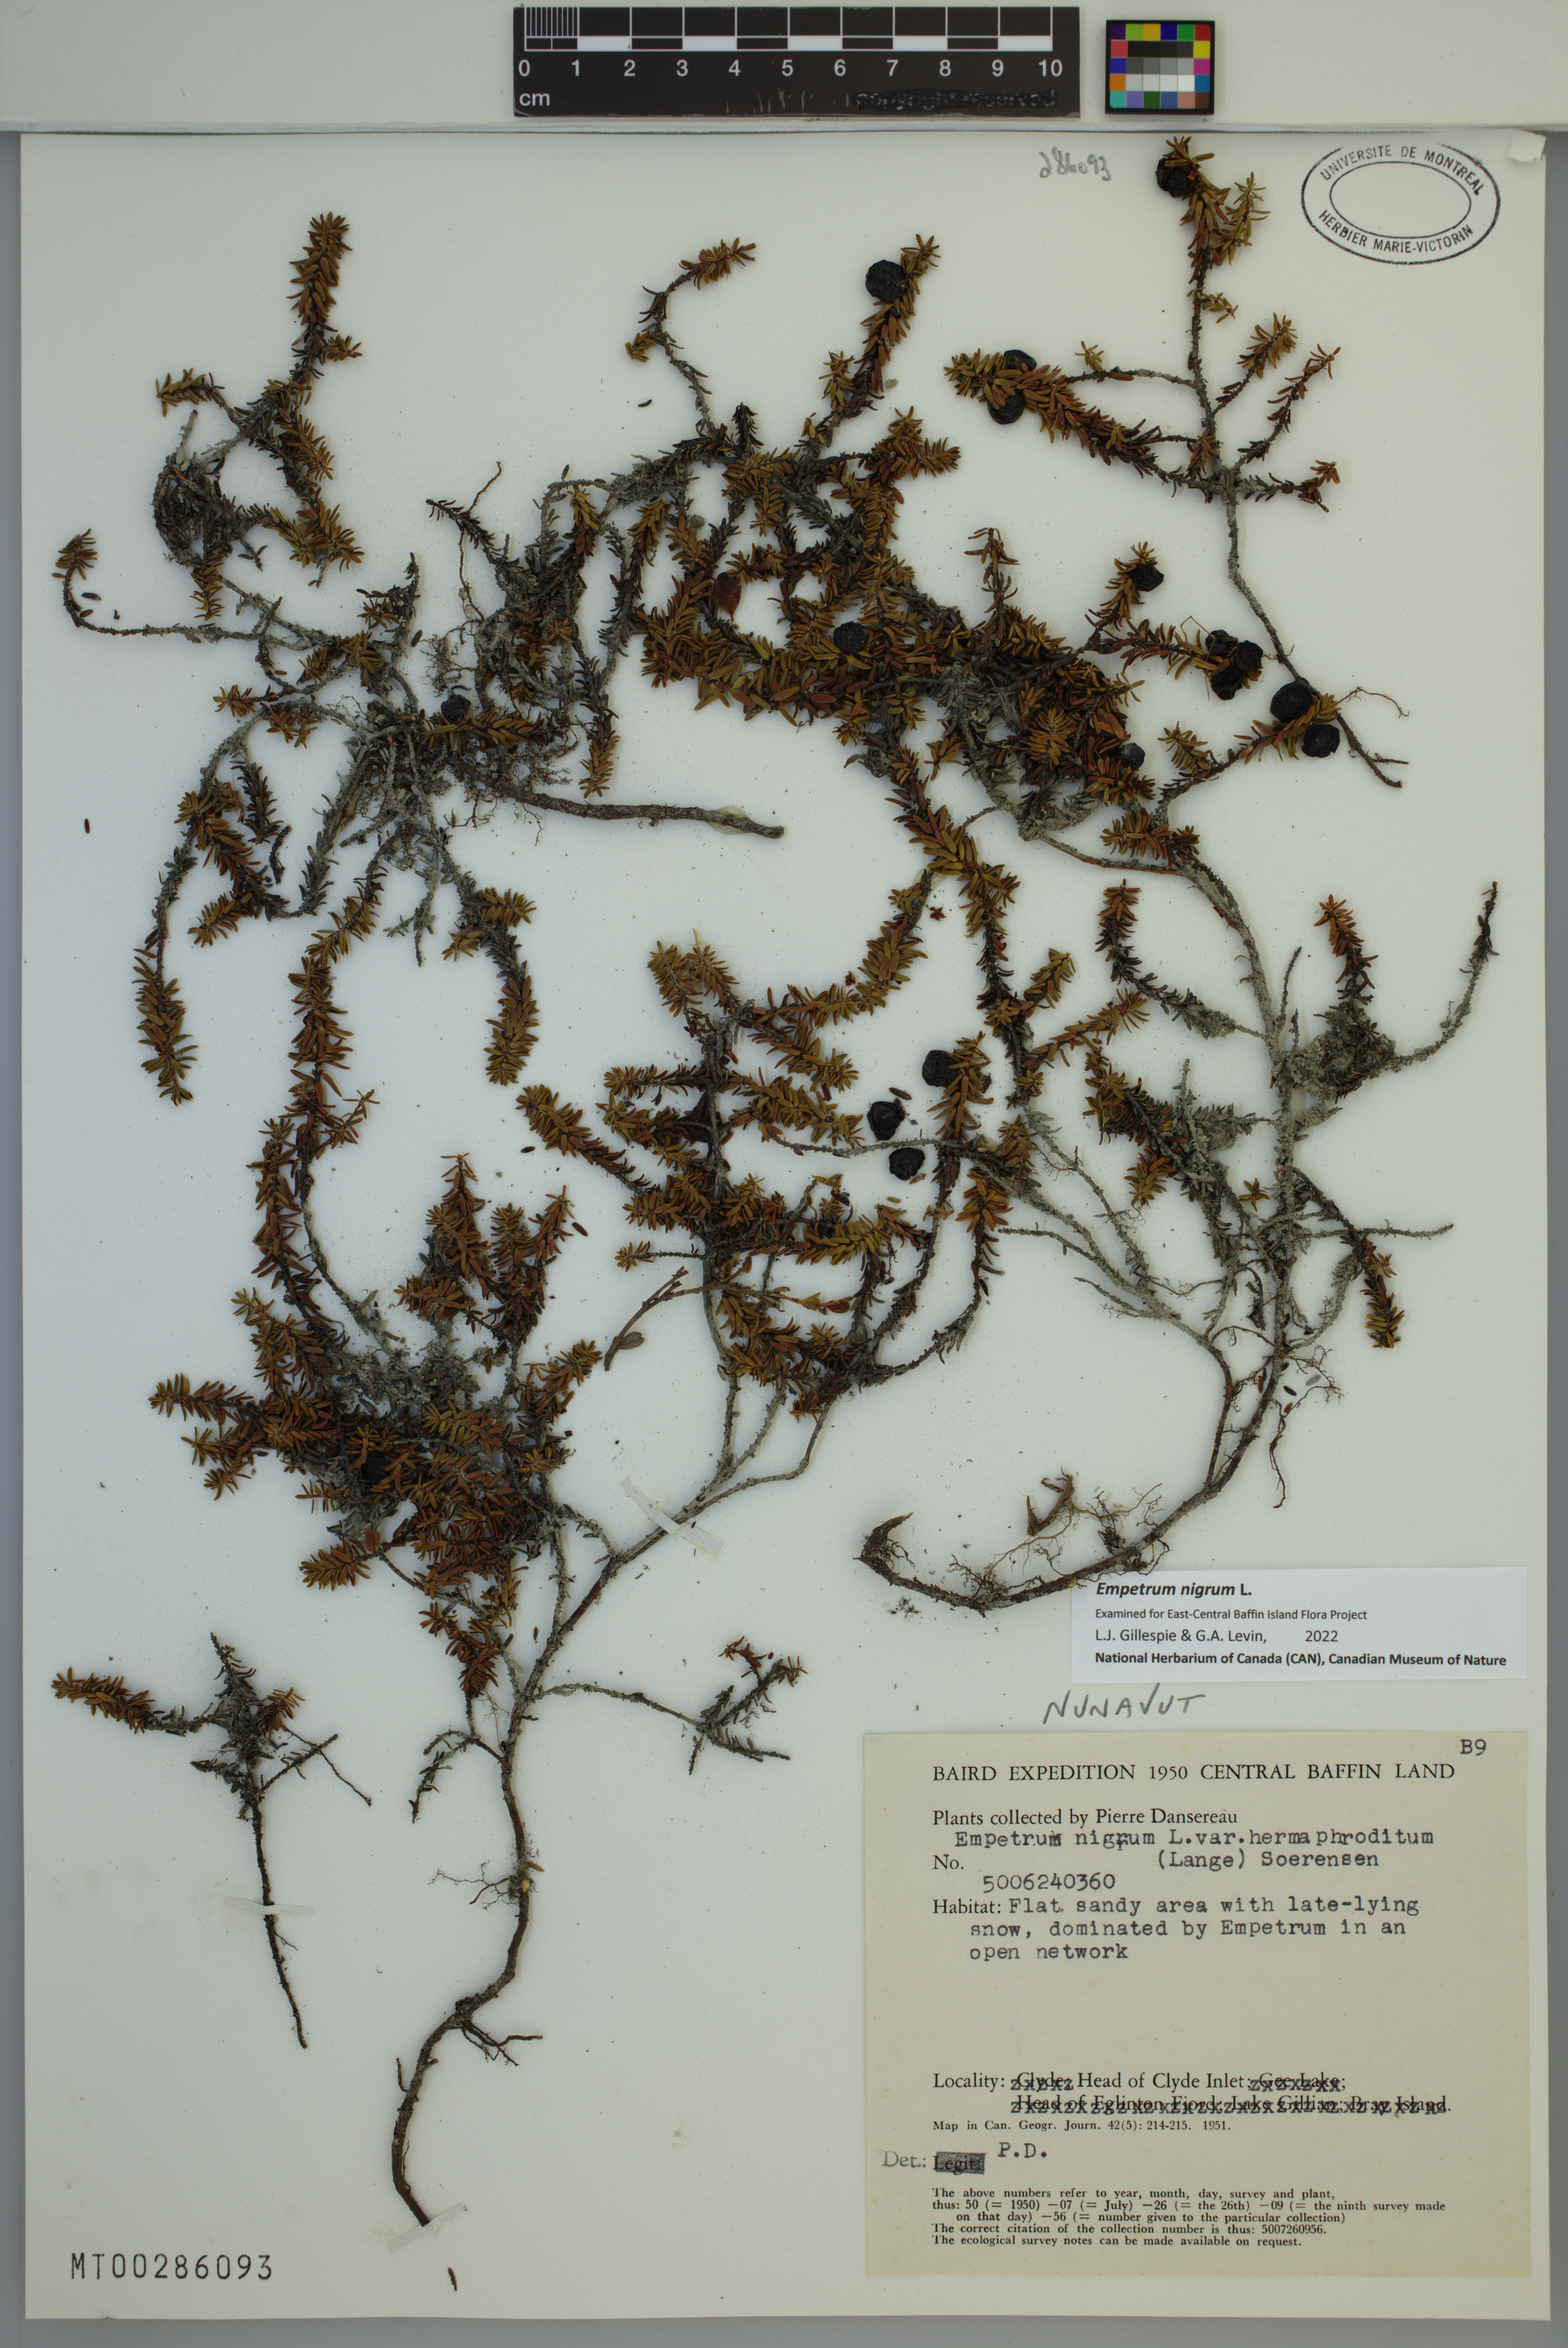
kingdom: Plantae
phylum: Tracheophyta
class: Magnoliopsida
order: Ericales
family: Ericaceae
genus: Empetrum
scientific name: Empetrum nigrum
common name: Black crowberry
